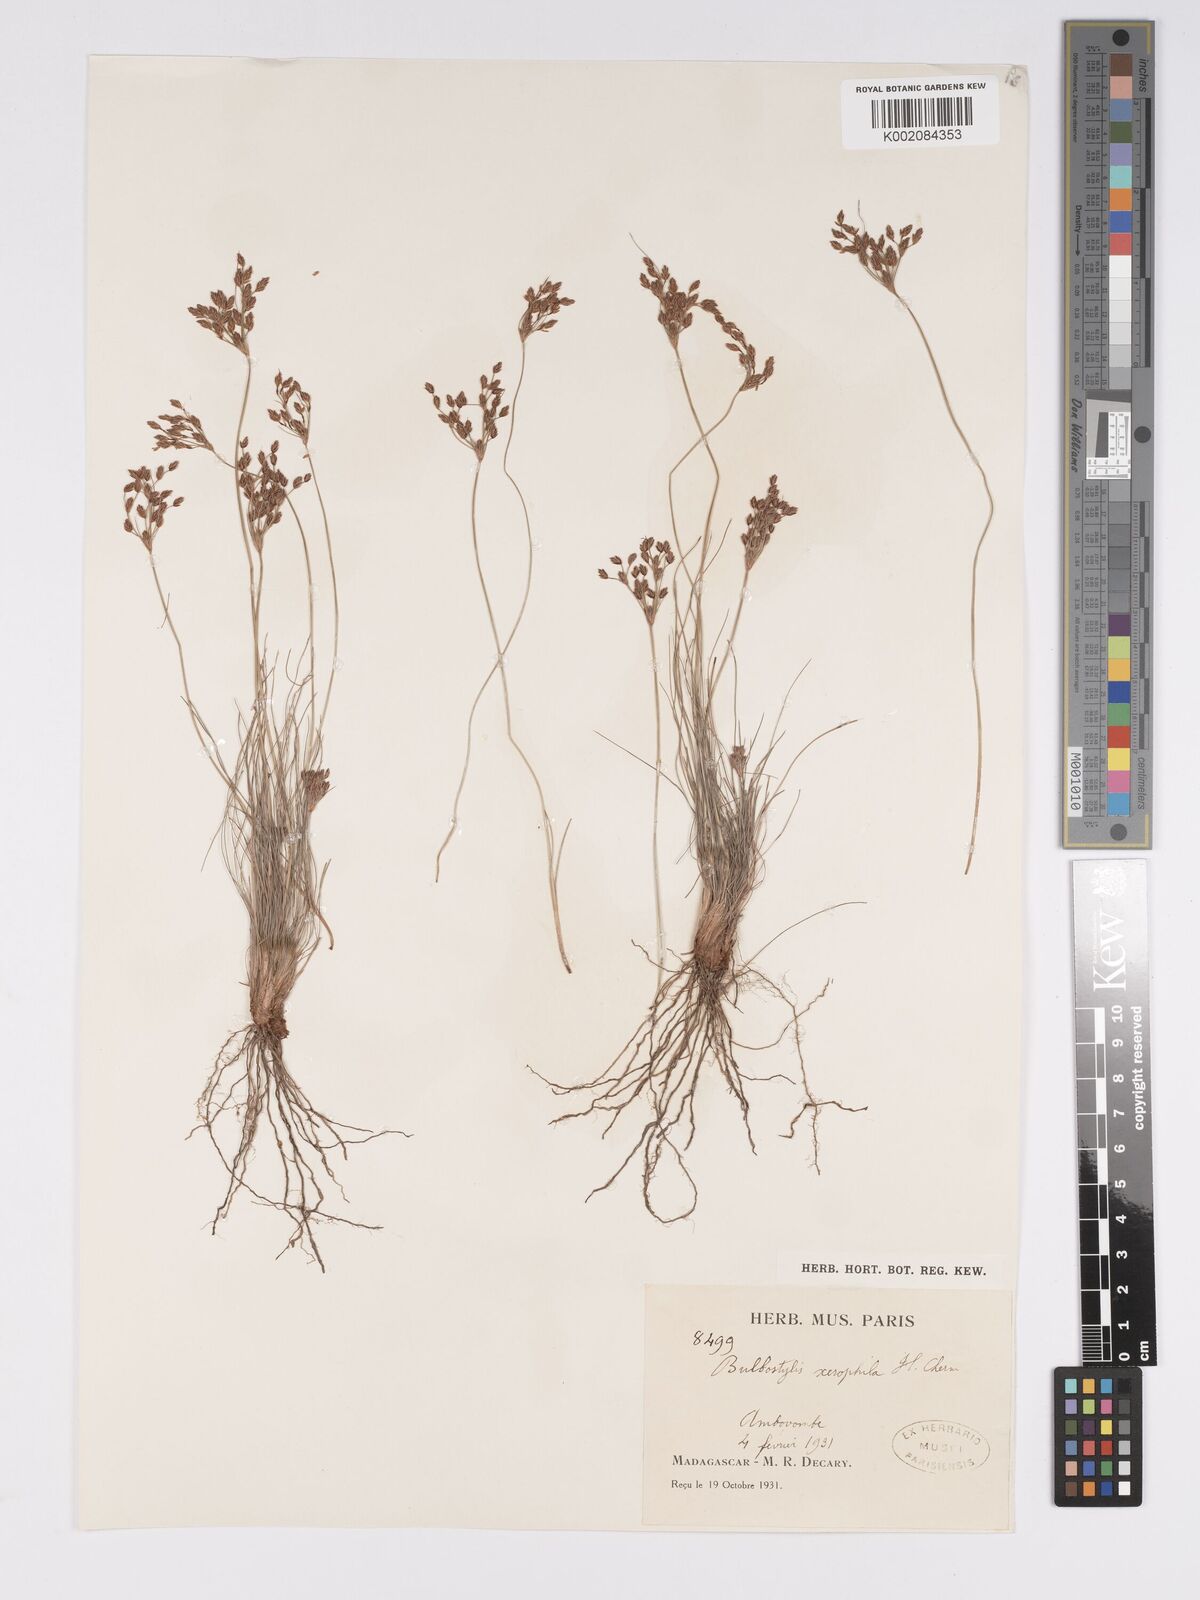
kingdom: Plantae
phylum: Tracheophyta
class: Liliopsida
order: Poales
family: Cyperaceae
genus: Bulbostylis
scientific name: Bulbostylis xerophila
